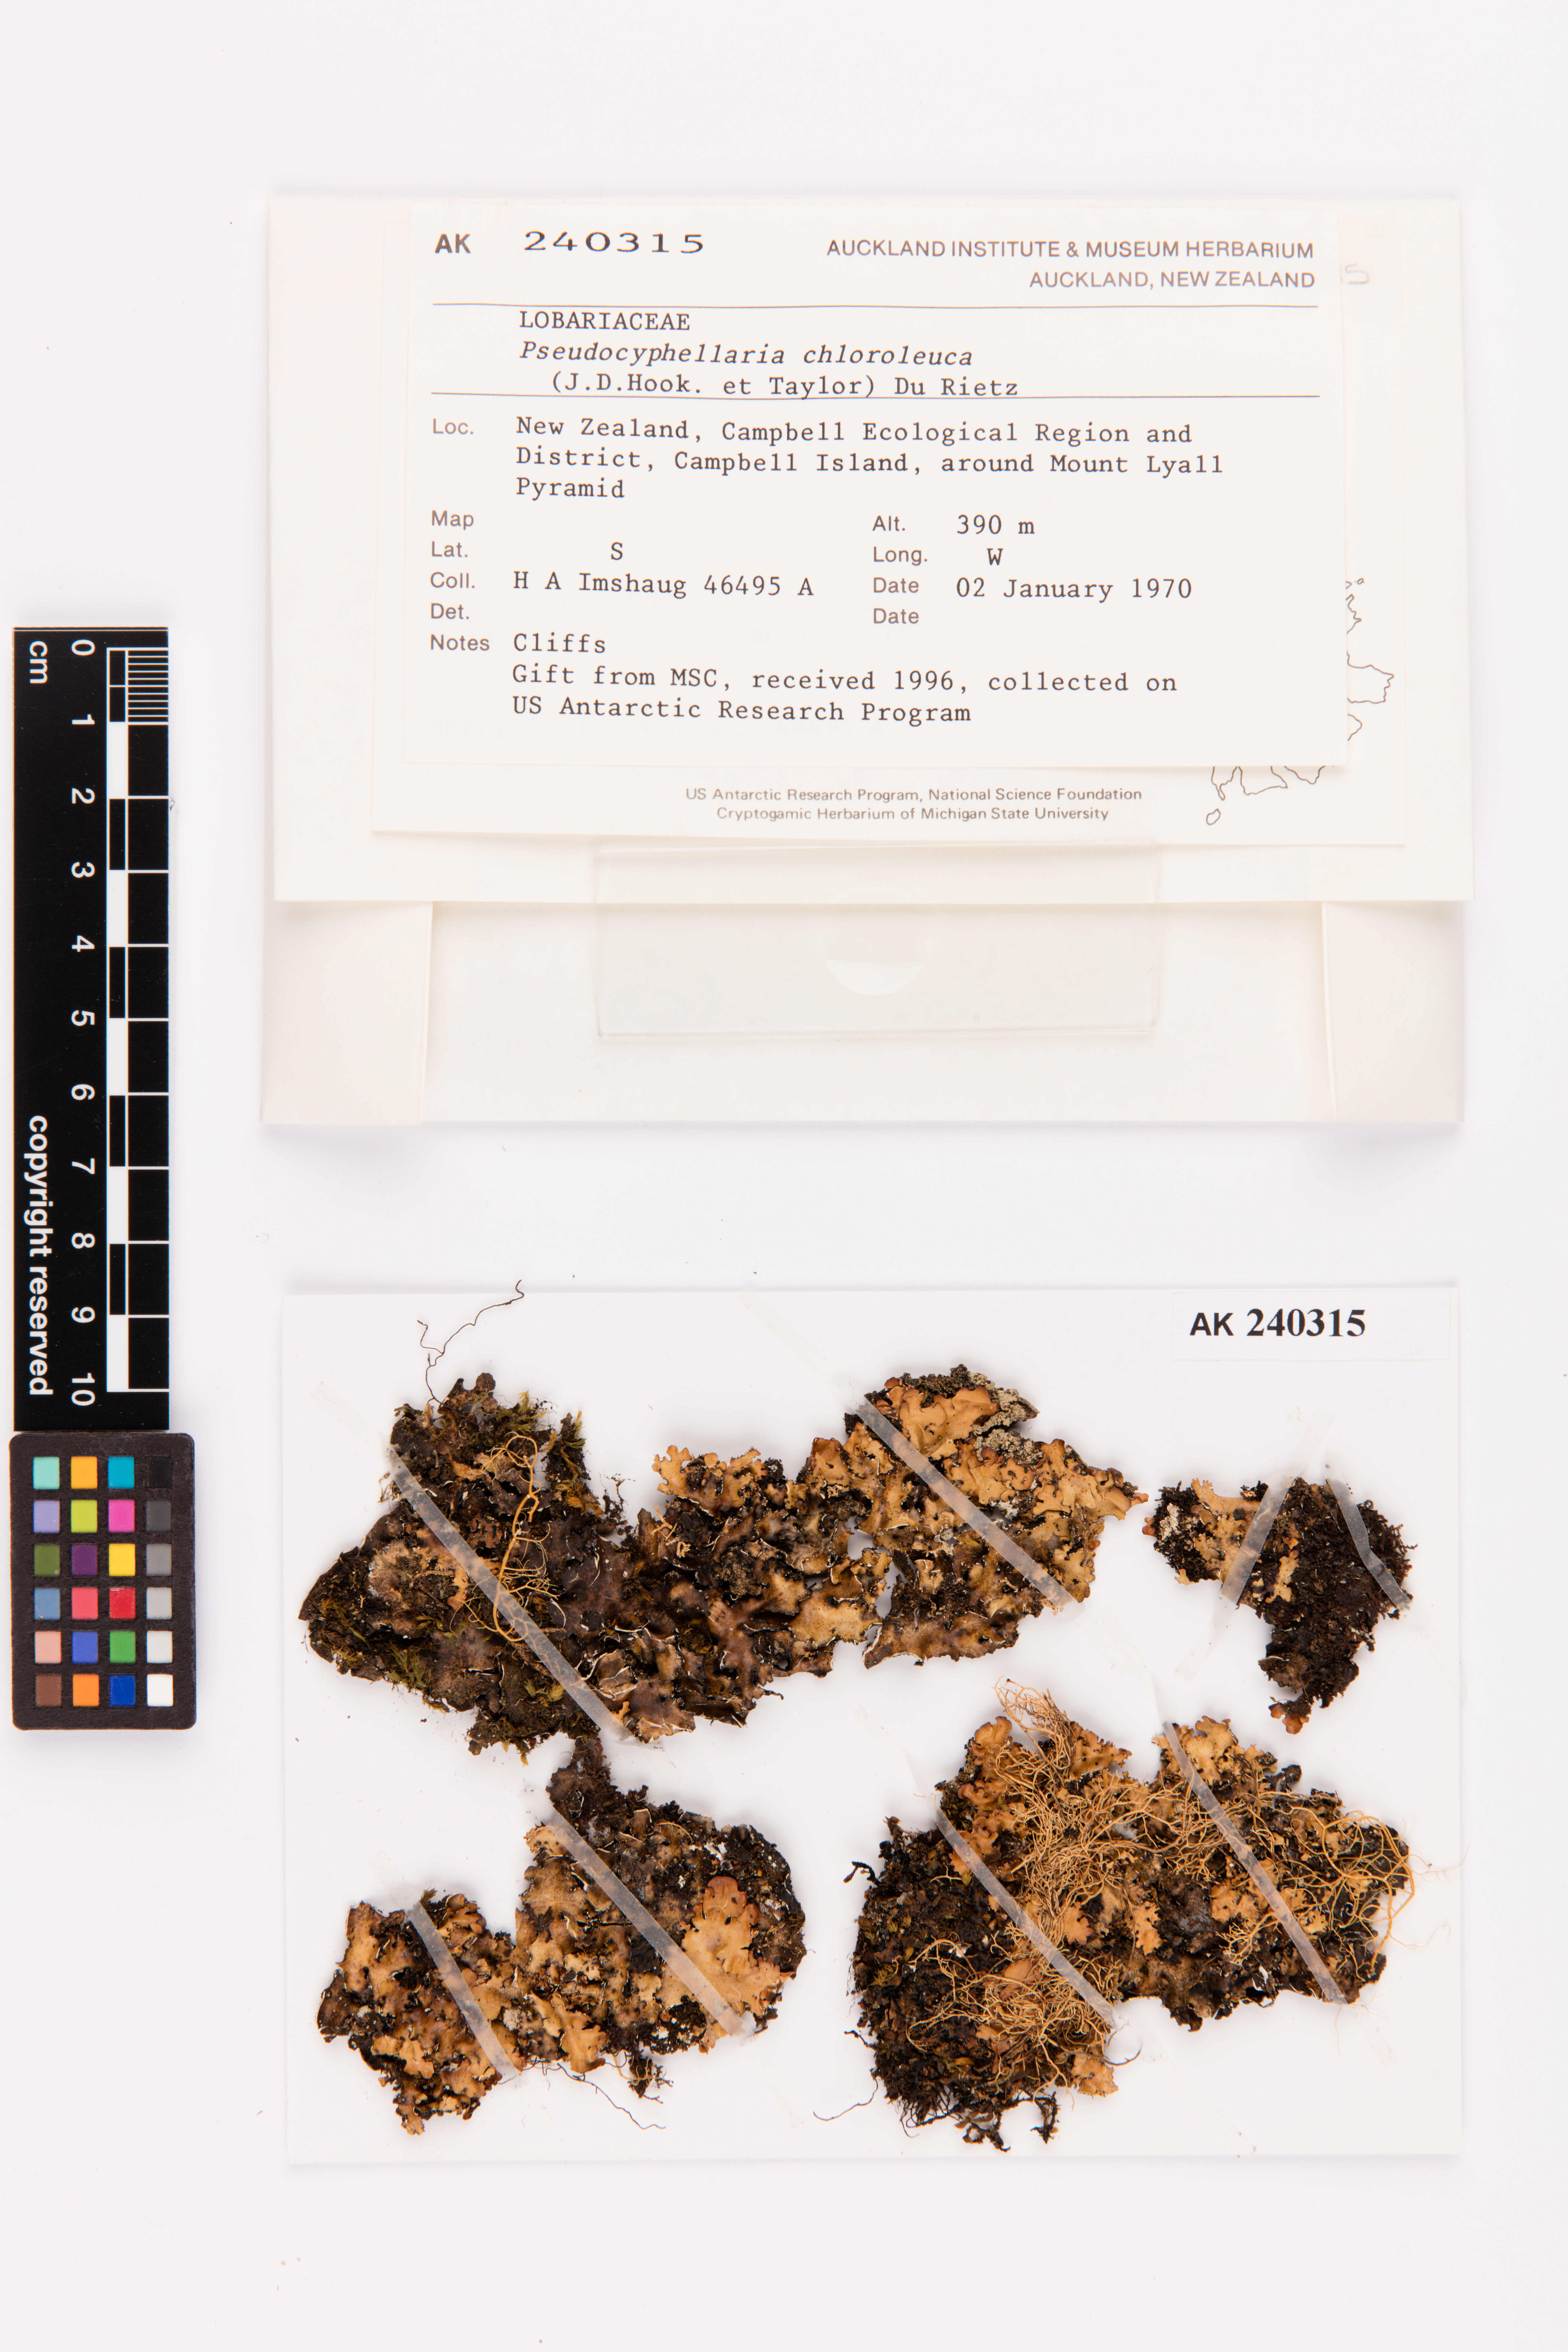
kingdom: Fungi
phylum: Ascomycota
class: Lecanoromycetes
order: Peltigerales
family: Lobariaceae
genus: Pseudocyphellaria
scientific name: Pseudocyphellaria chloroleuca
